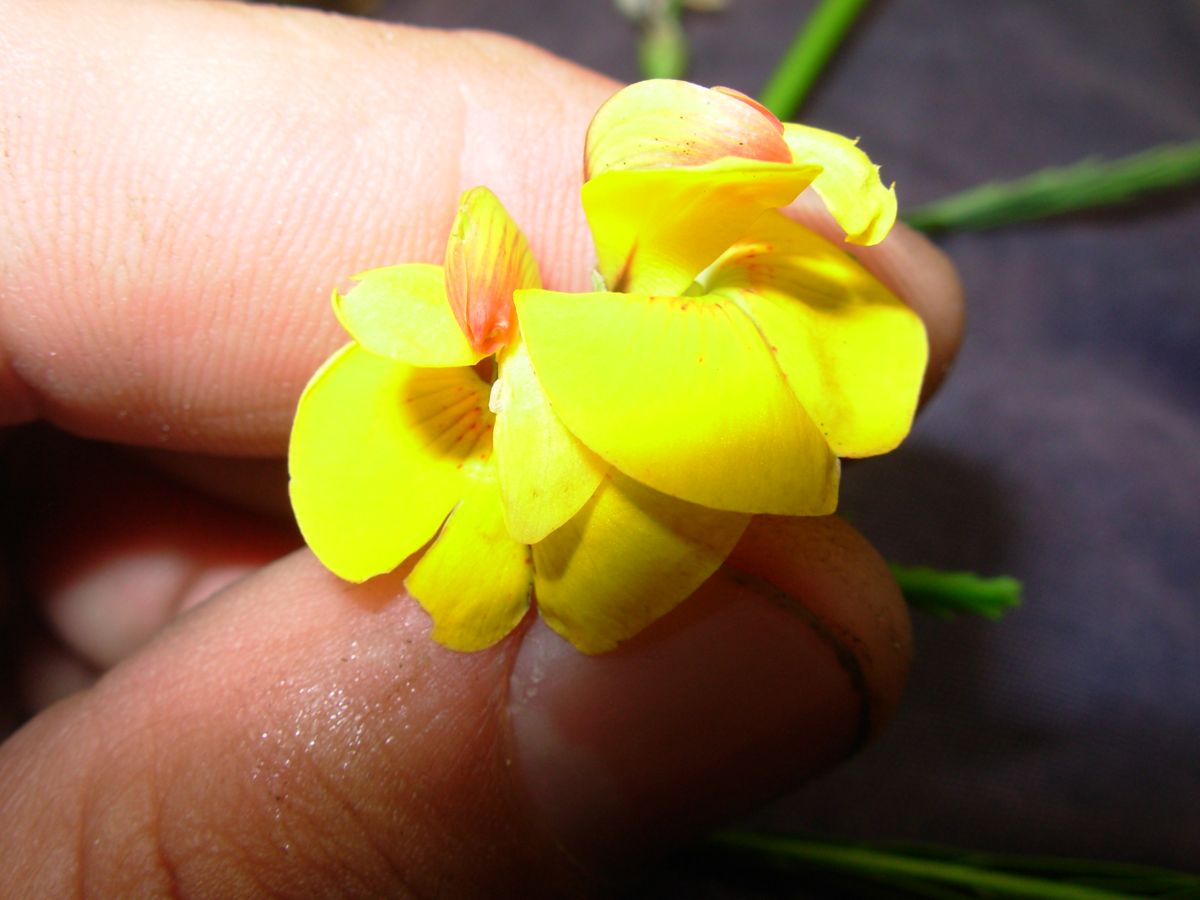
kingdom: Plantae
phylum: Tracheophyta
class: Magnoliopsida
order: Fabales
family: Fabaceae
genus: Sesbania
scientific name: Sesbania herbacea
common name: Bigpod sesbania
